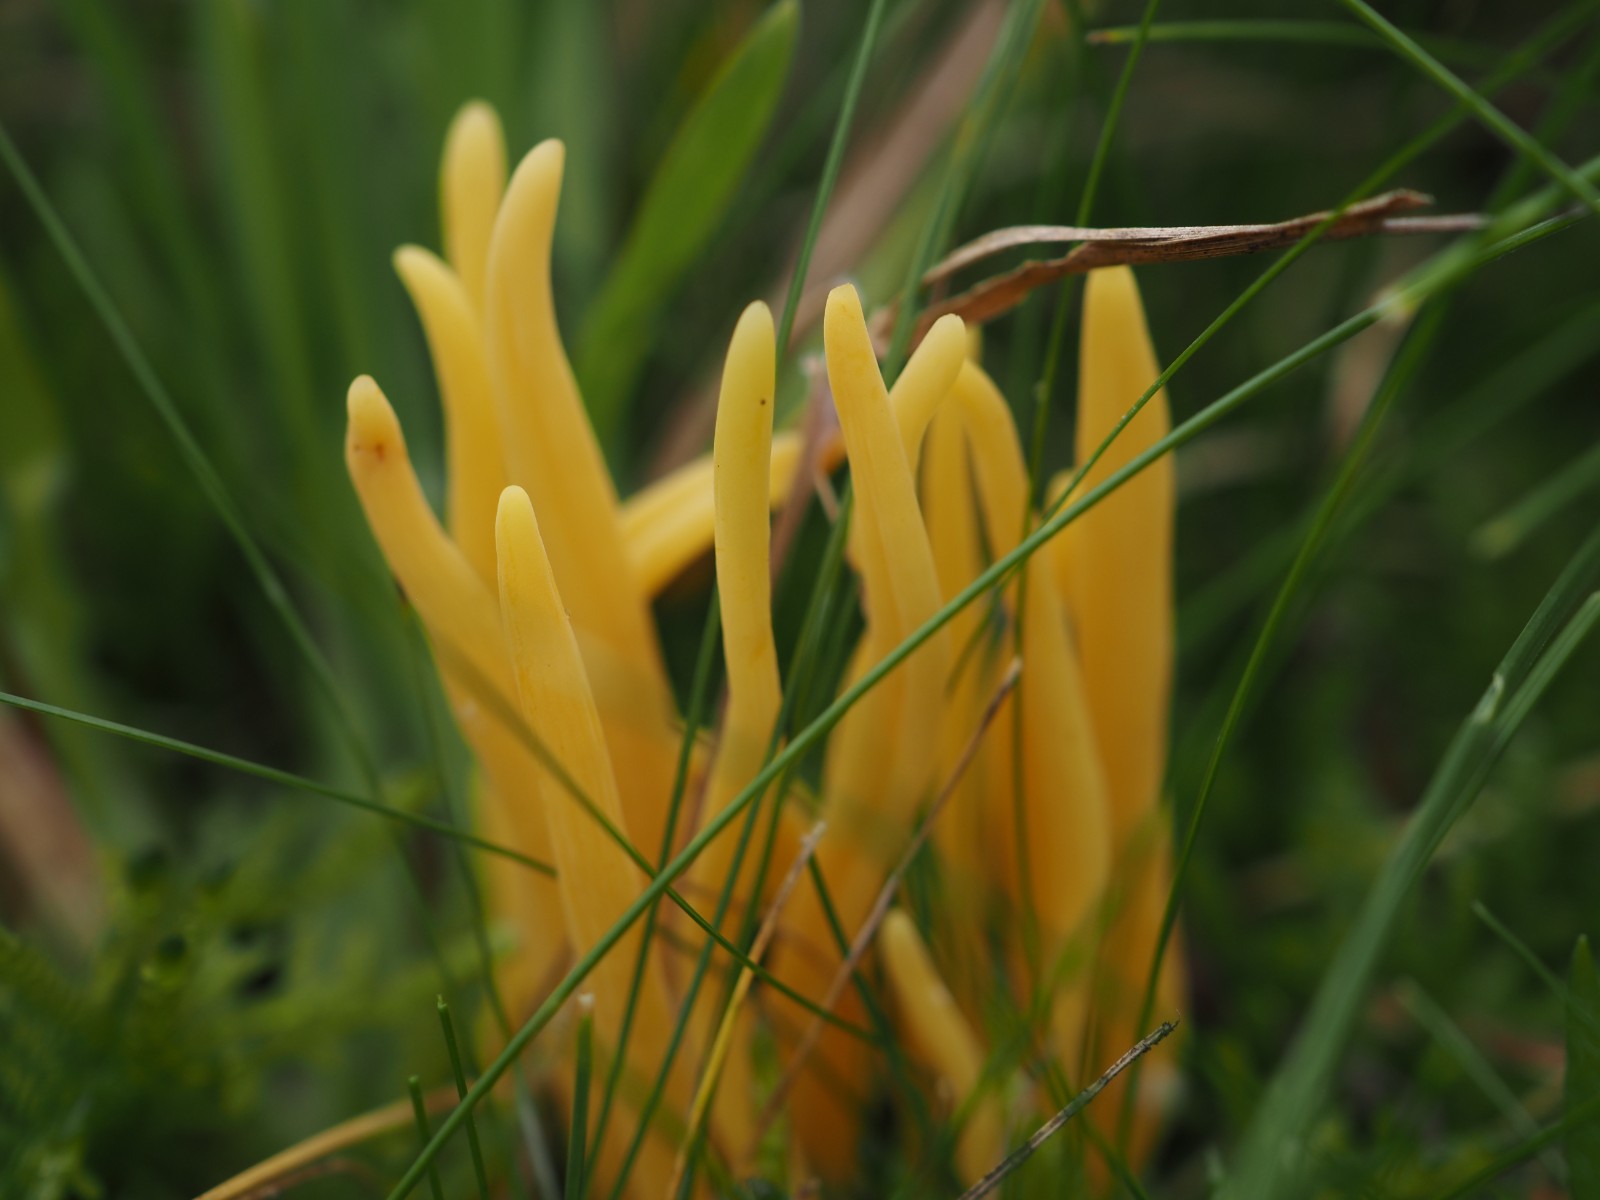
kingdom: Fungi
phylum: Basidiomycota
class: Agaricomycetes
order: Agaricales
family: Clavariaceae
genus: Clavulinopsis
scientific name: Clavulinopsis helvola
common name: orangegul køllesvamp
